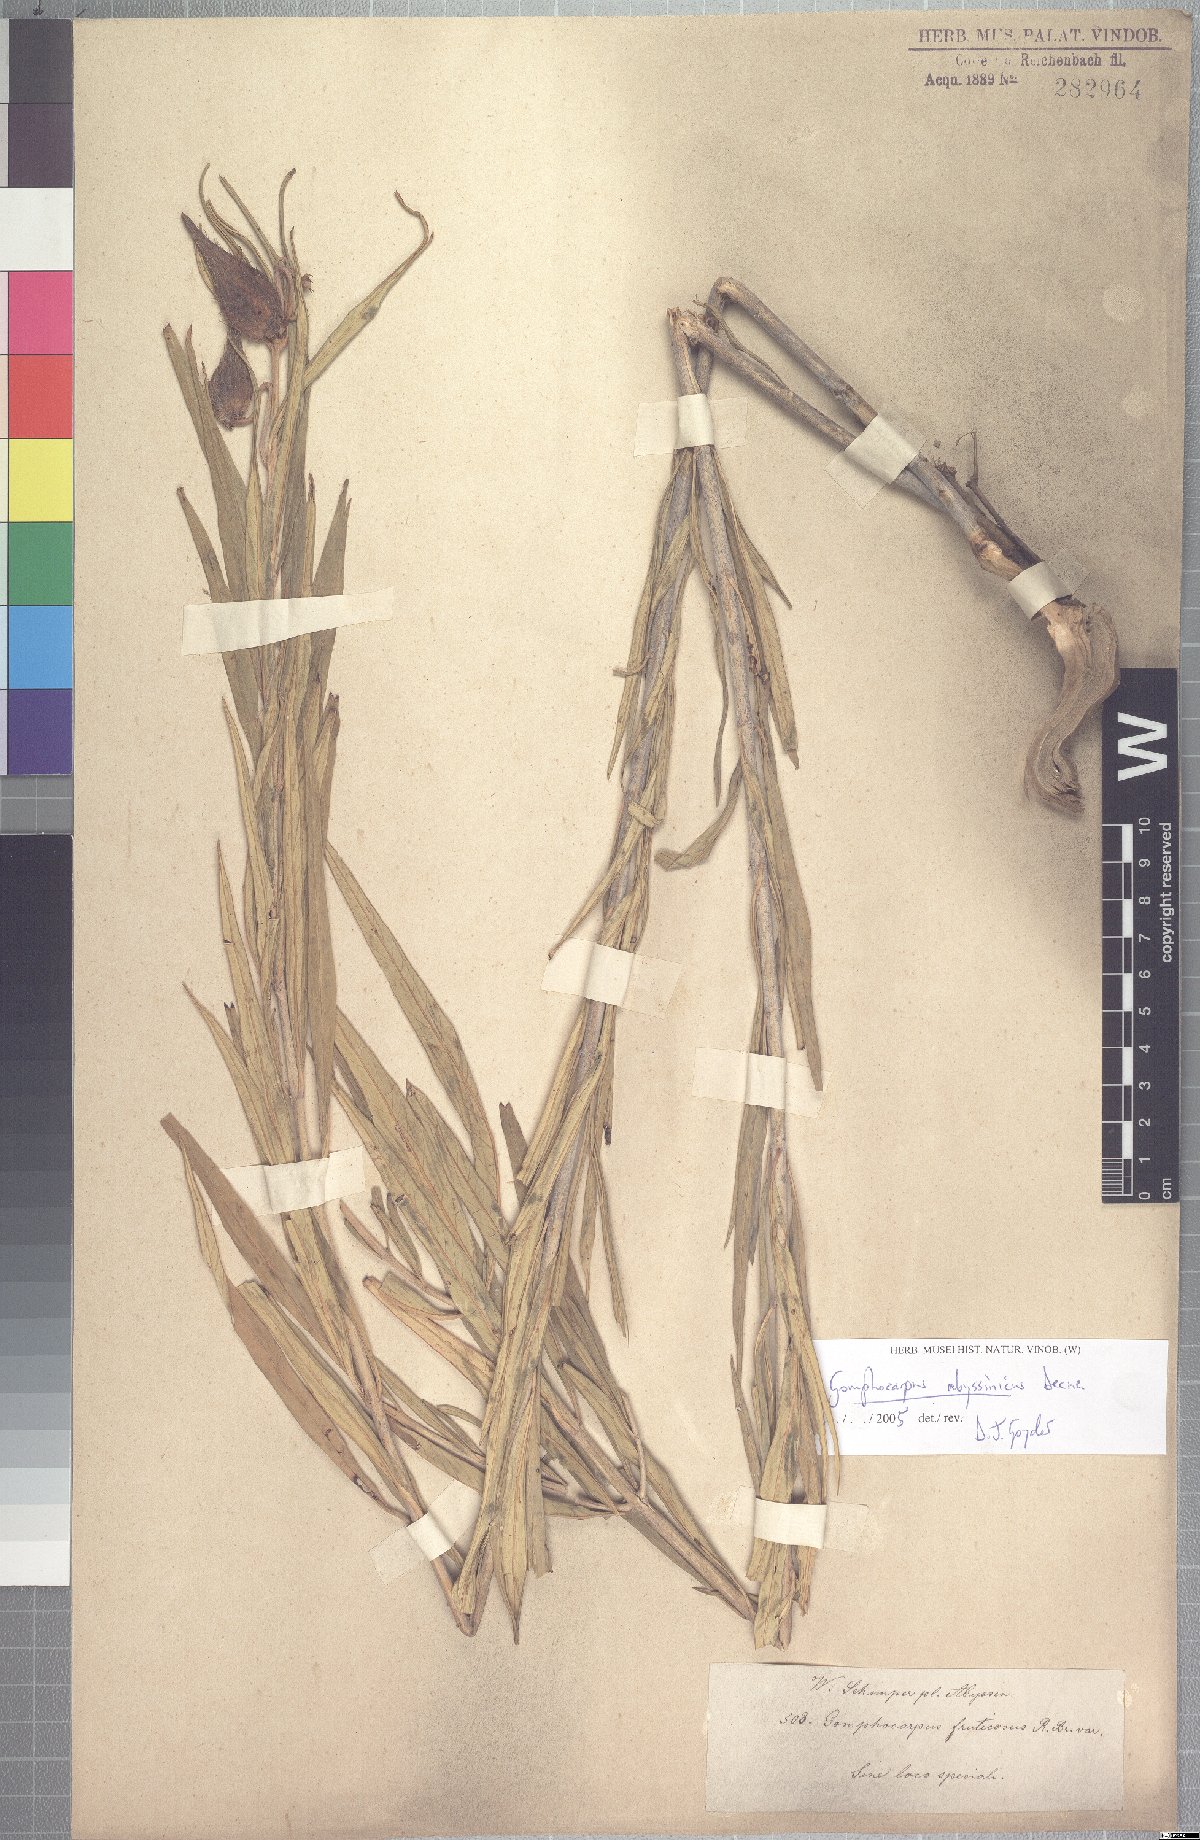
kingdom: Plantae
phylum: Tracheophyta
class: Magnoliopsida
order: Gentianales
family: Apocynaceae
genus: Gomphocarpus
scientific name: Gomphocarpus abyssinicus
